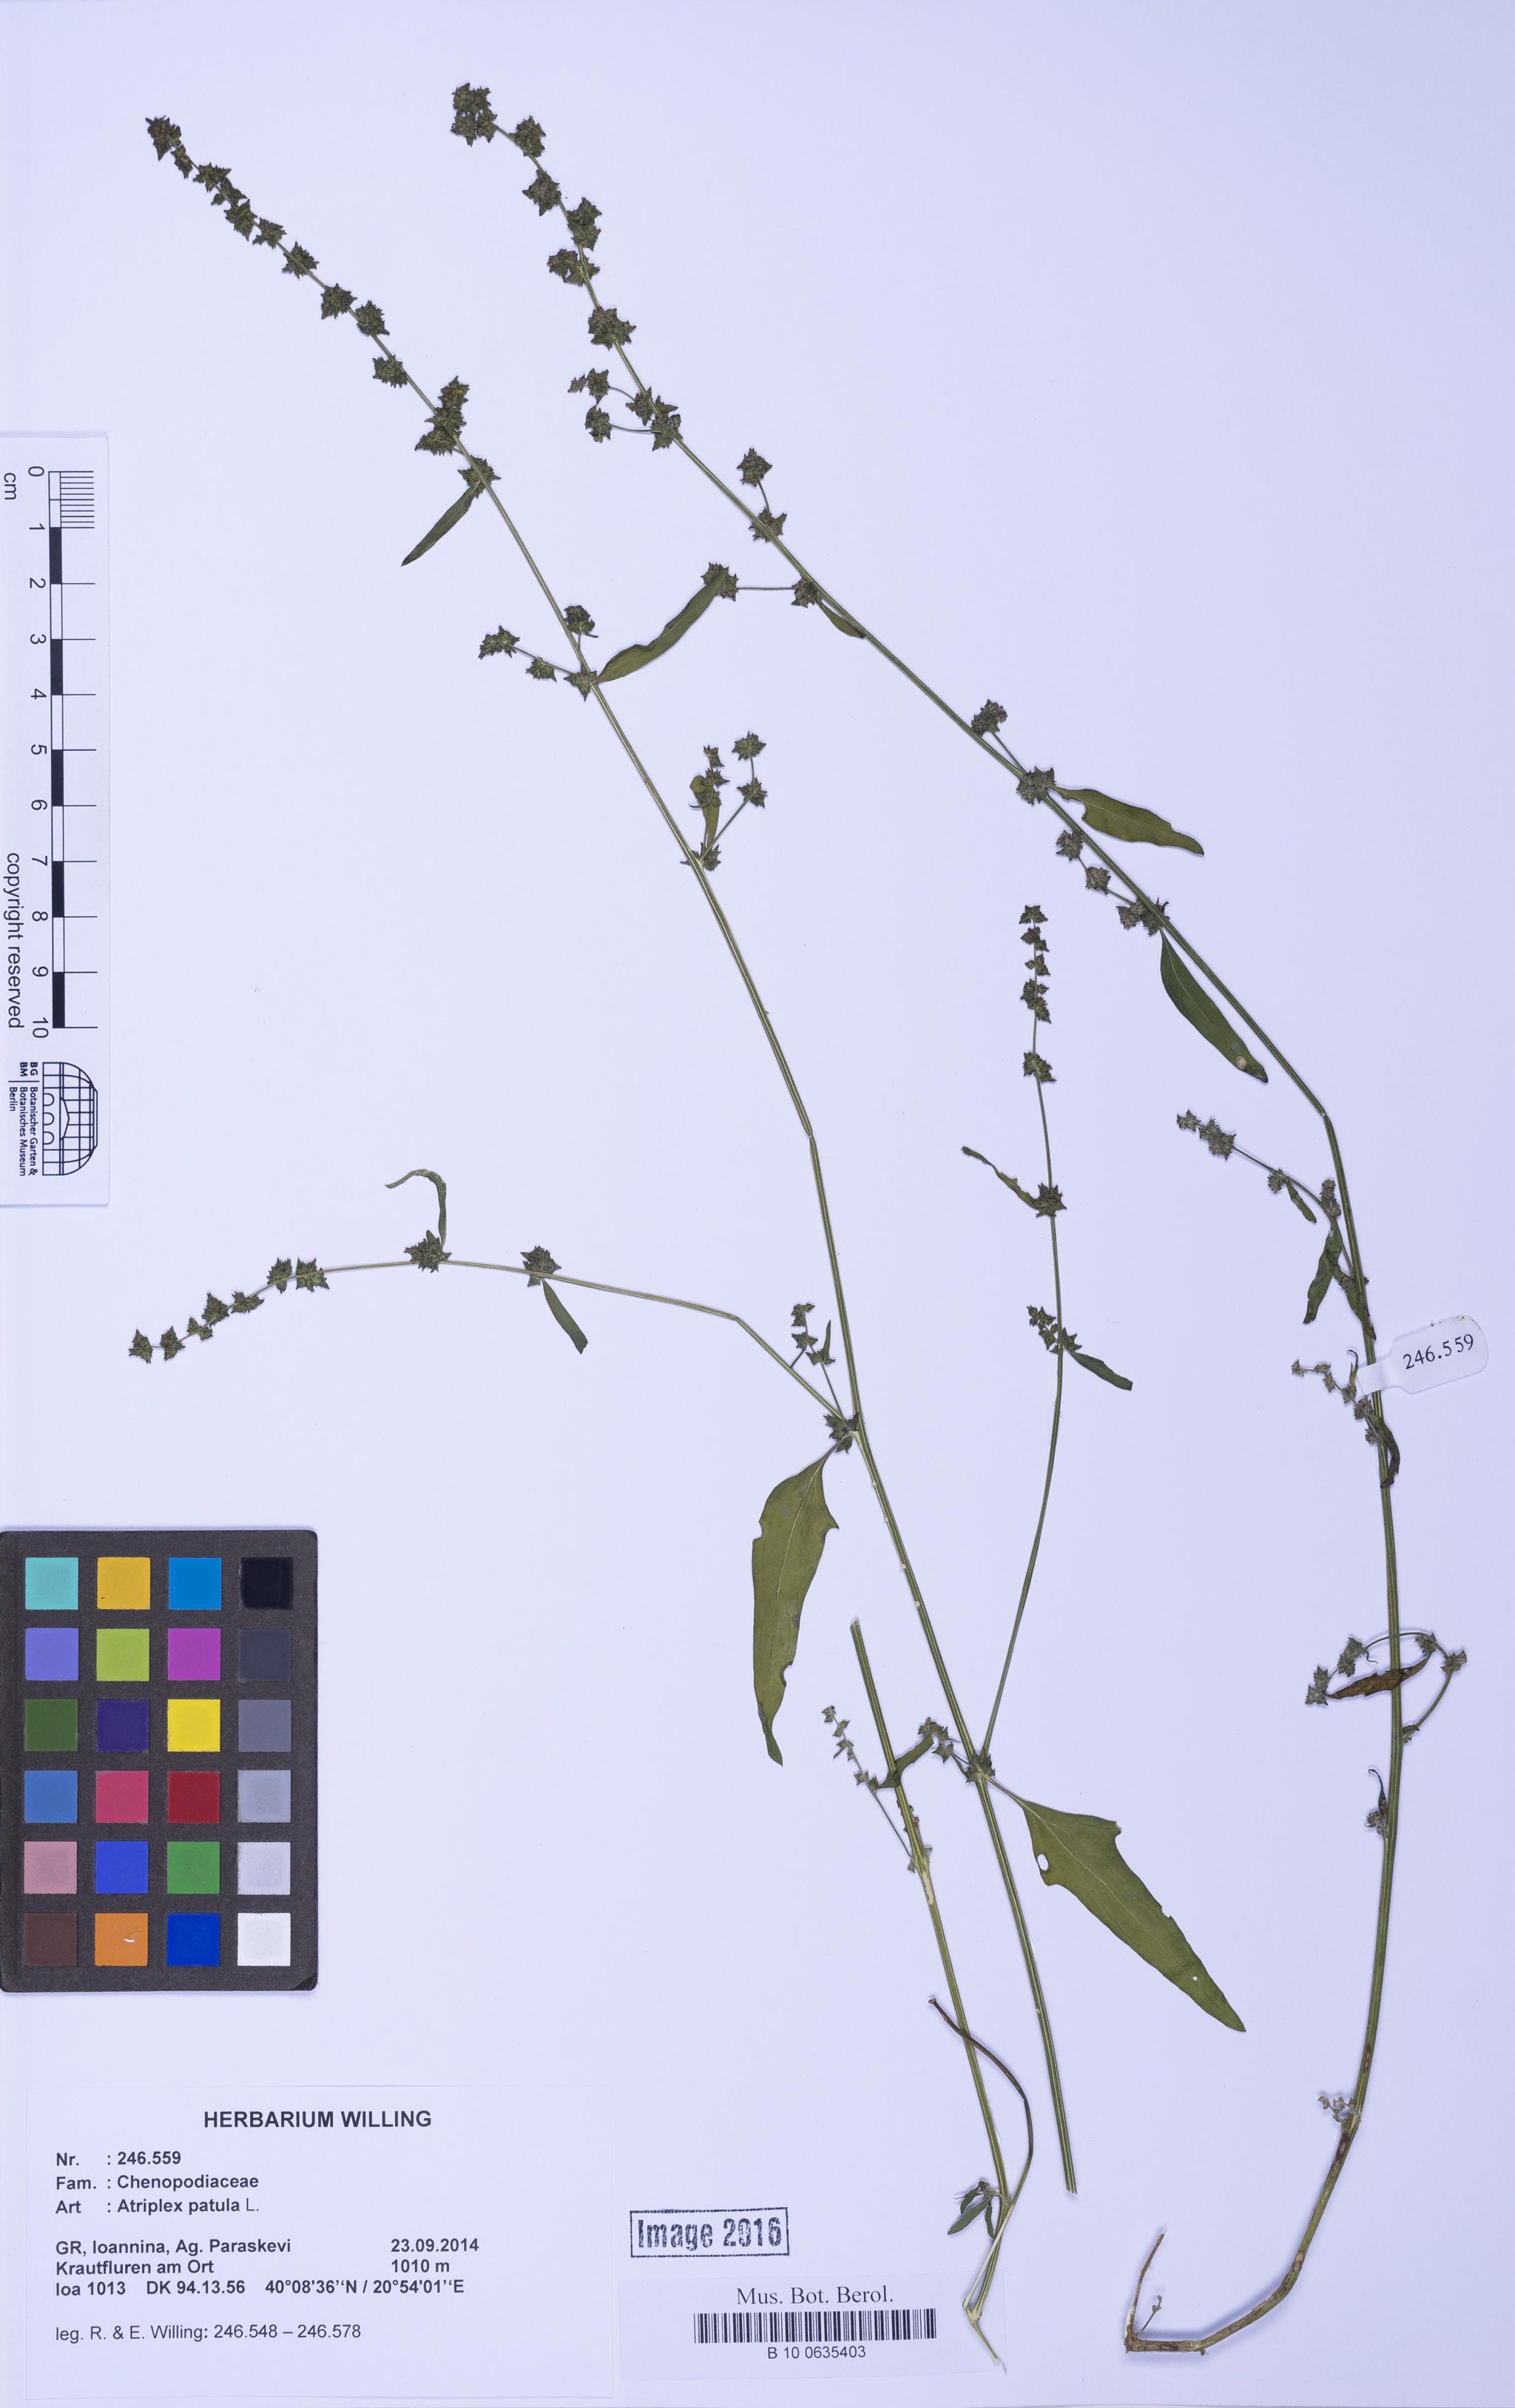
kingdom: Plantae
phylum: Tracheophyta
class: Magnoliopsida
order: Caryophyllales
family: Amaranthaceae
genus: Atriplex
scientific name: Atriplex patula
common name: Common orache
